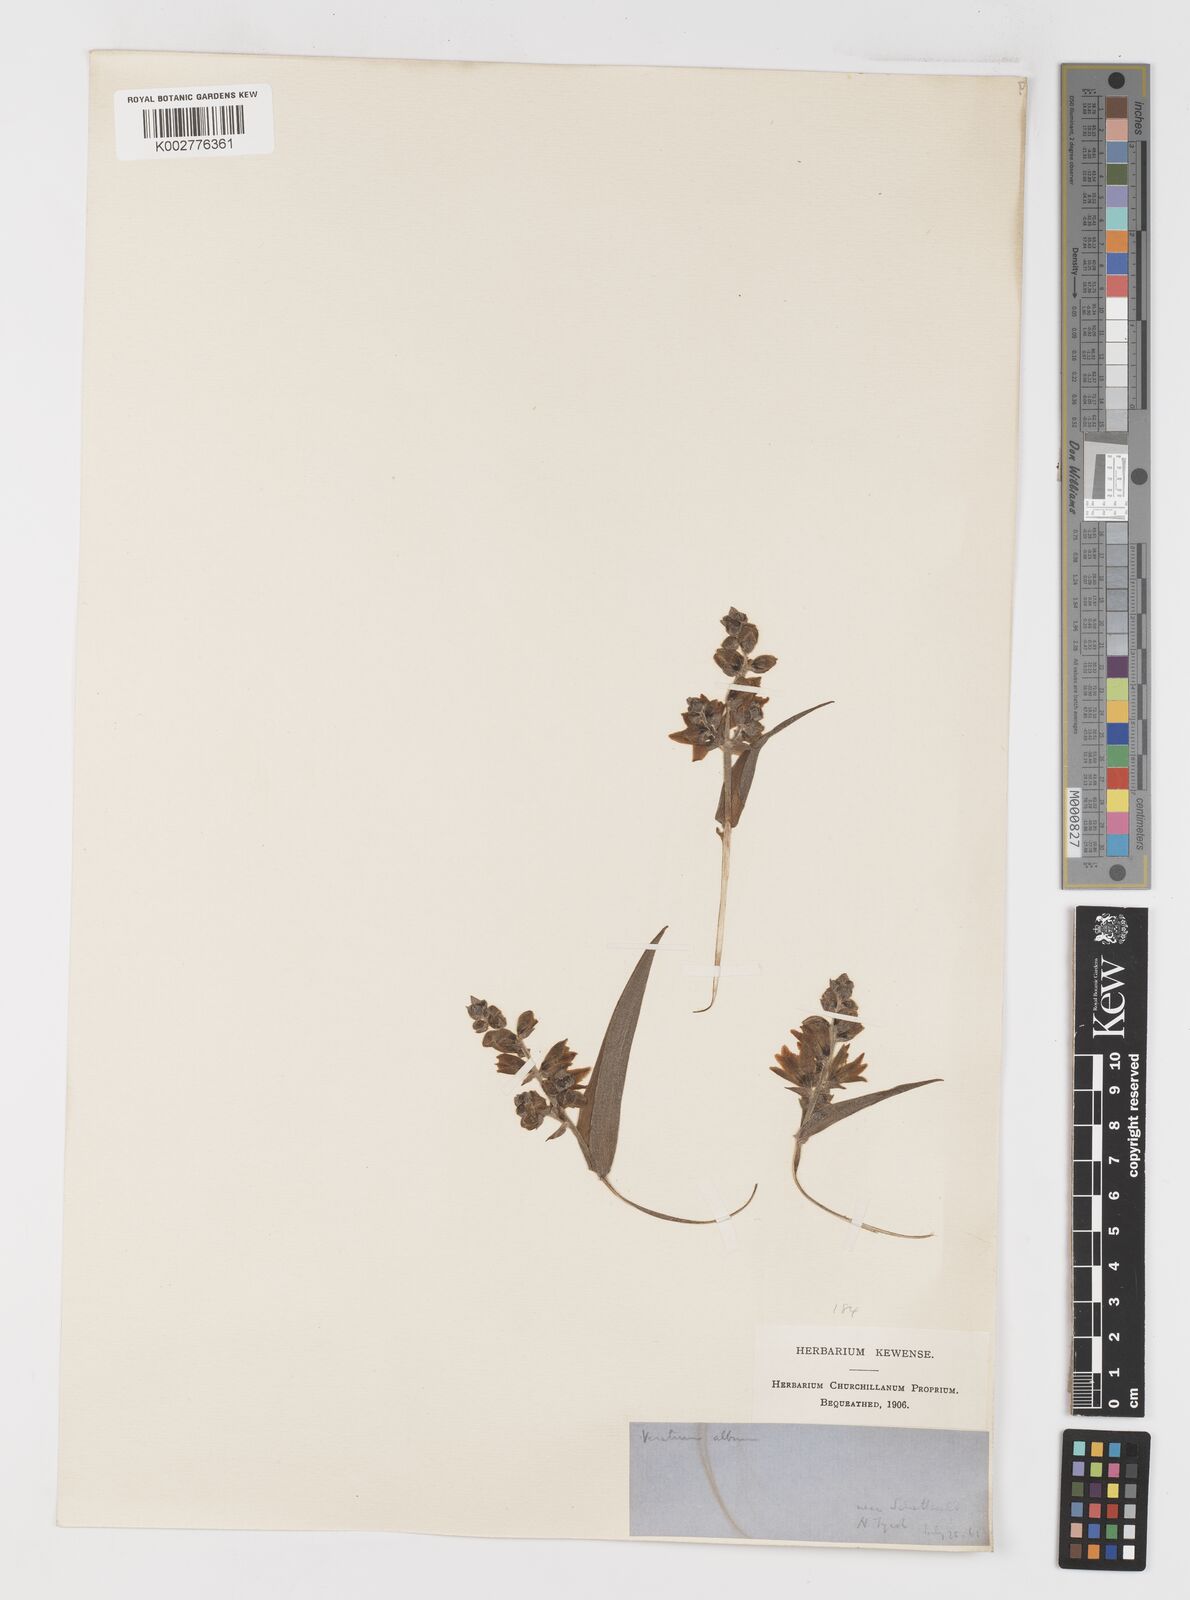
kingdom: Plantae
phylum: Tracheophyta
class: Liliopsida
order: Liliales
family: Melanthiaceae
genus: Veratrum
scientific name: Veratrum nigrum
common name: Black veratrum
